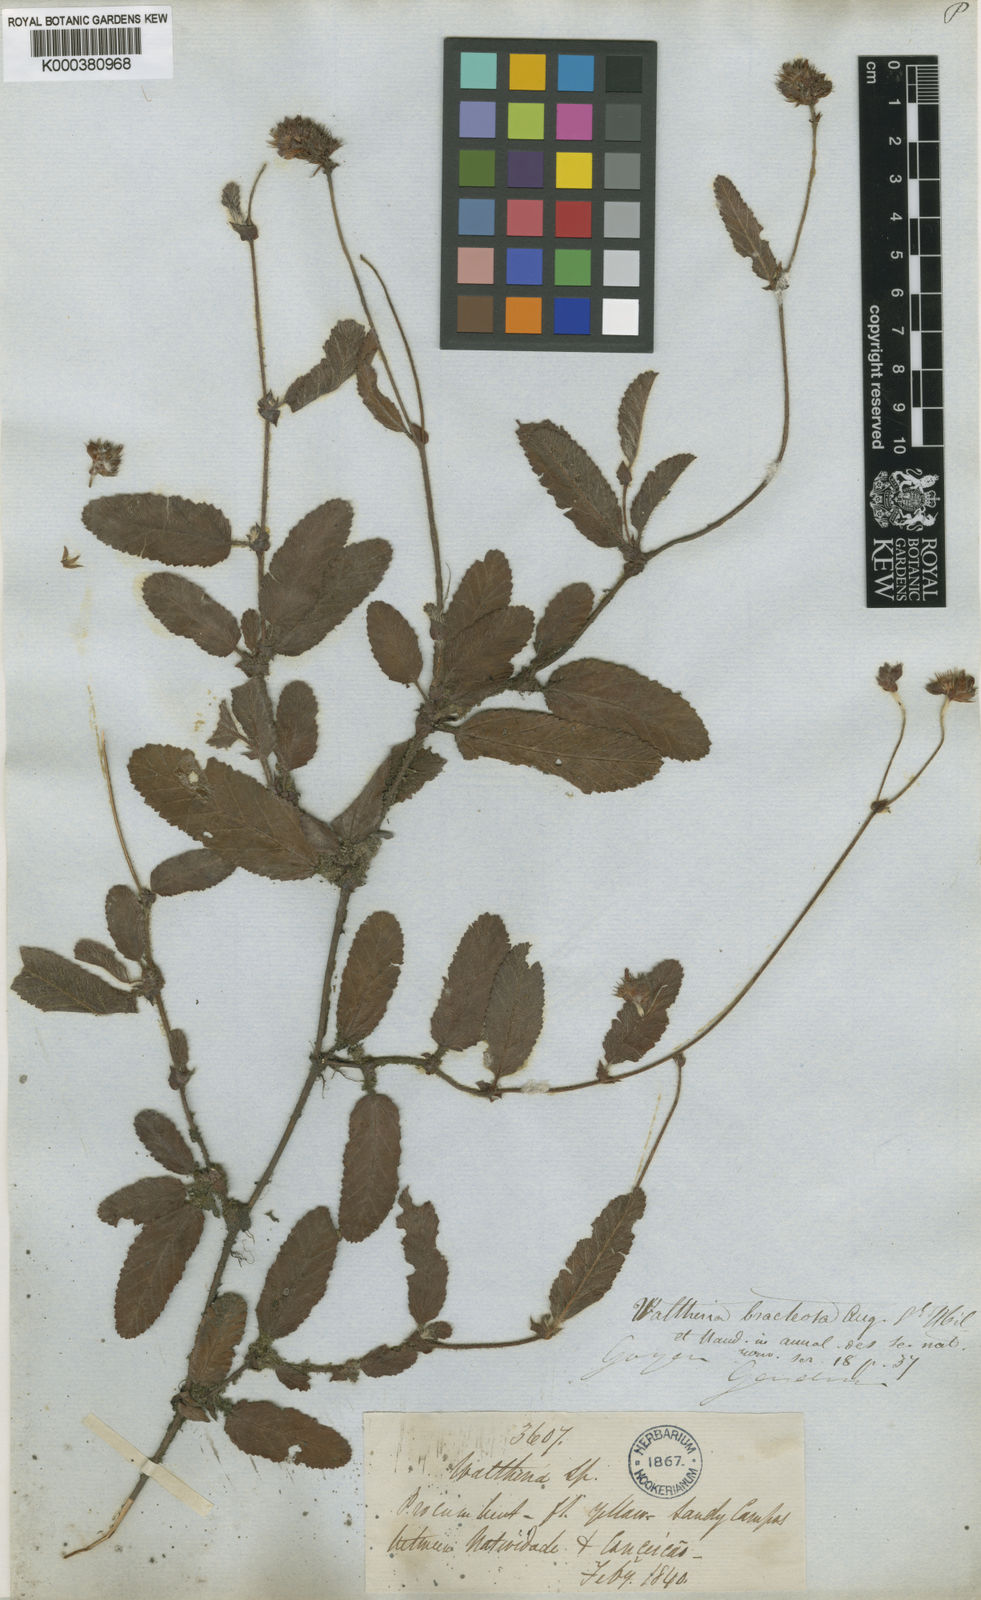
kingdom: Plantae
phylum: Tracheophyta
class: Magnoliopsida
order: Malvales
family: Malvaceae
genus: Waltheria
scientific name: Waltheria bracteosa
